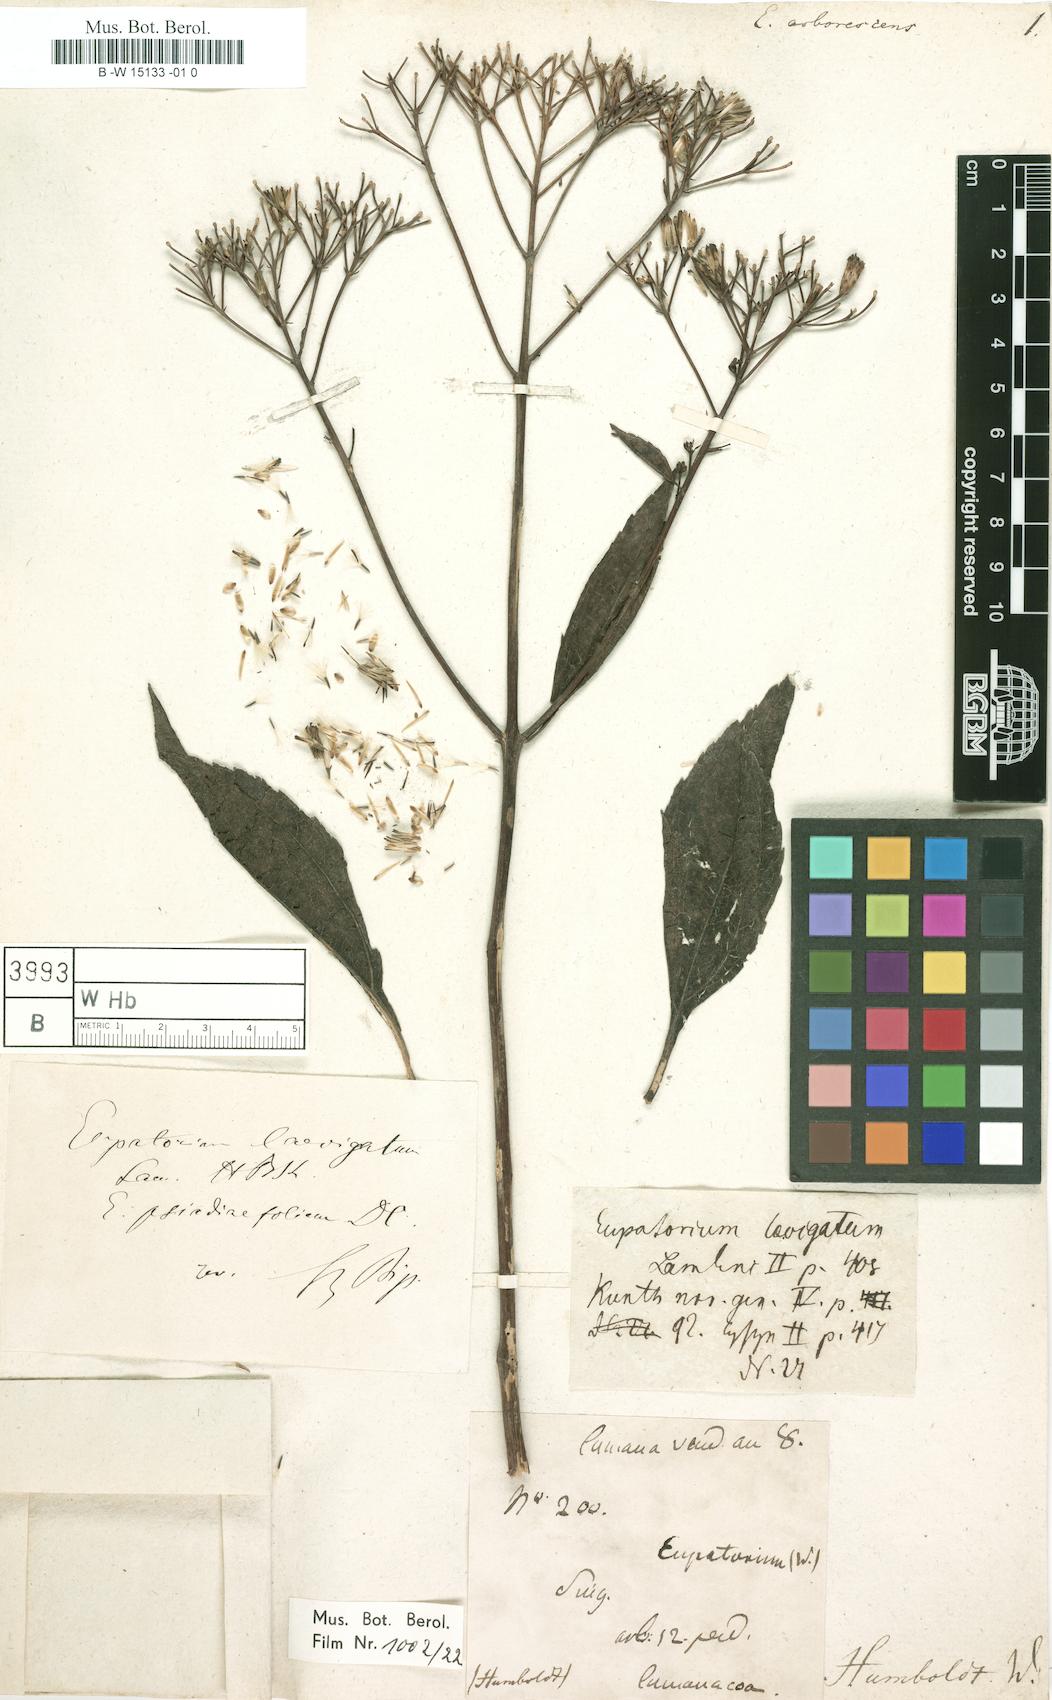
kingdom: Plantae
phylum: Tracheophyta
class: Magnoliopsida
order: Asterales
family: Asteraceae
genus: Koanophyllon
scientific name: Koanophyllon palmeri
